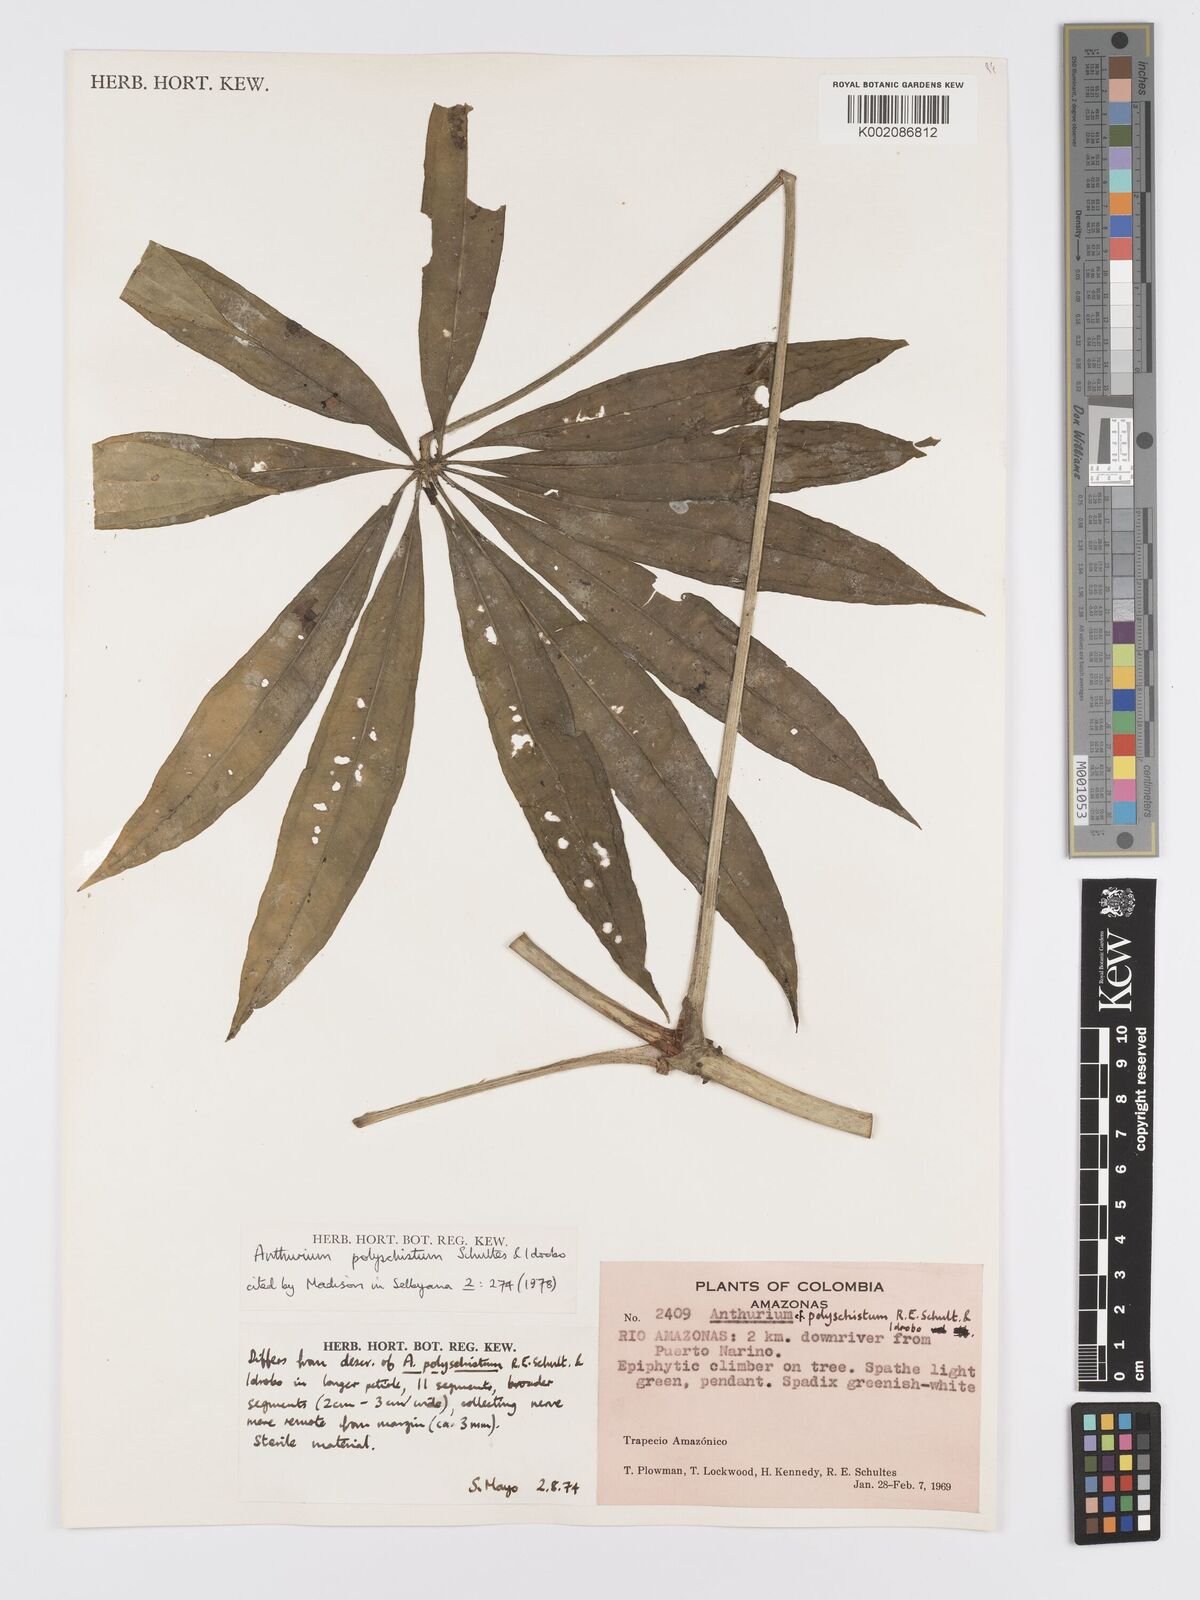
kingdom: Plantae
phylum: Tracheophyta
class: Liliopsida
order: Alismatales
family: Araceae
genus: Anthurium
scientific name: Anthurium polyschistum
